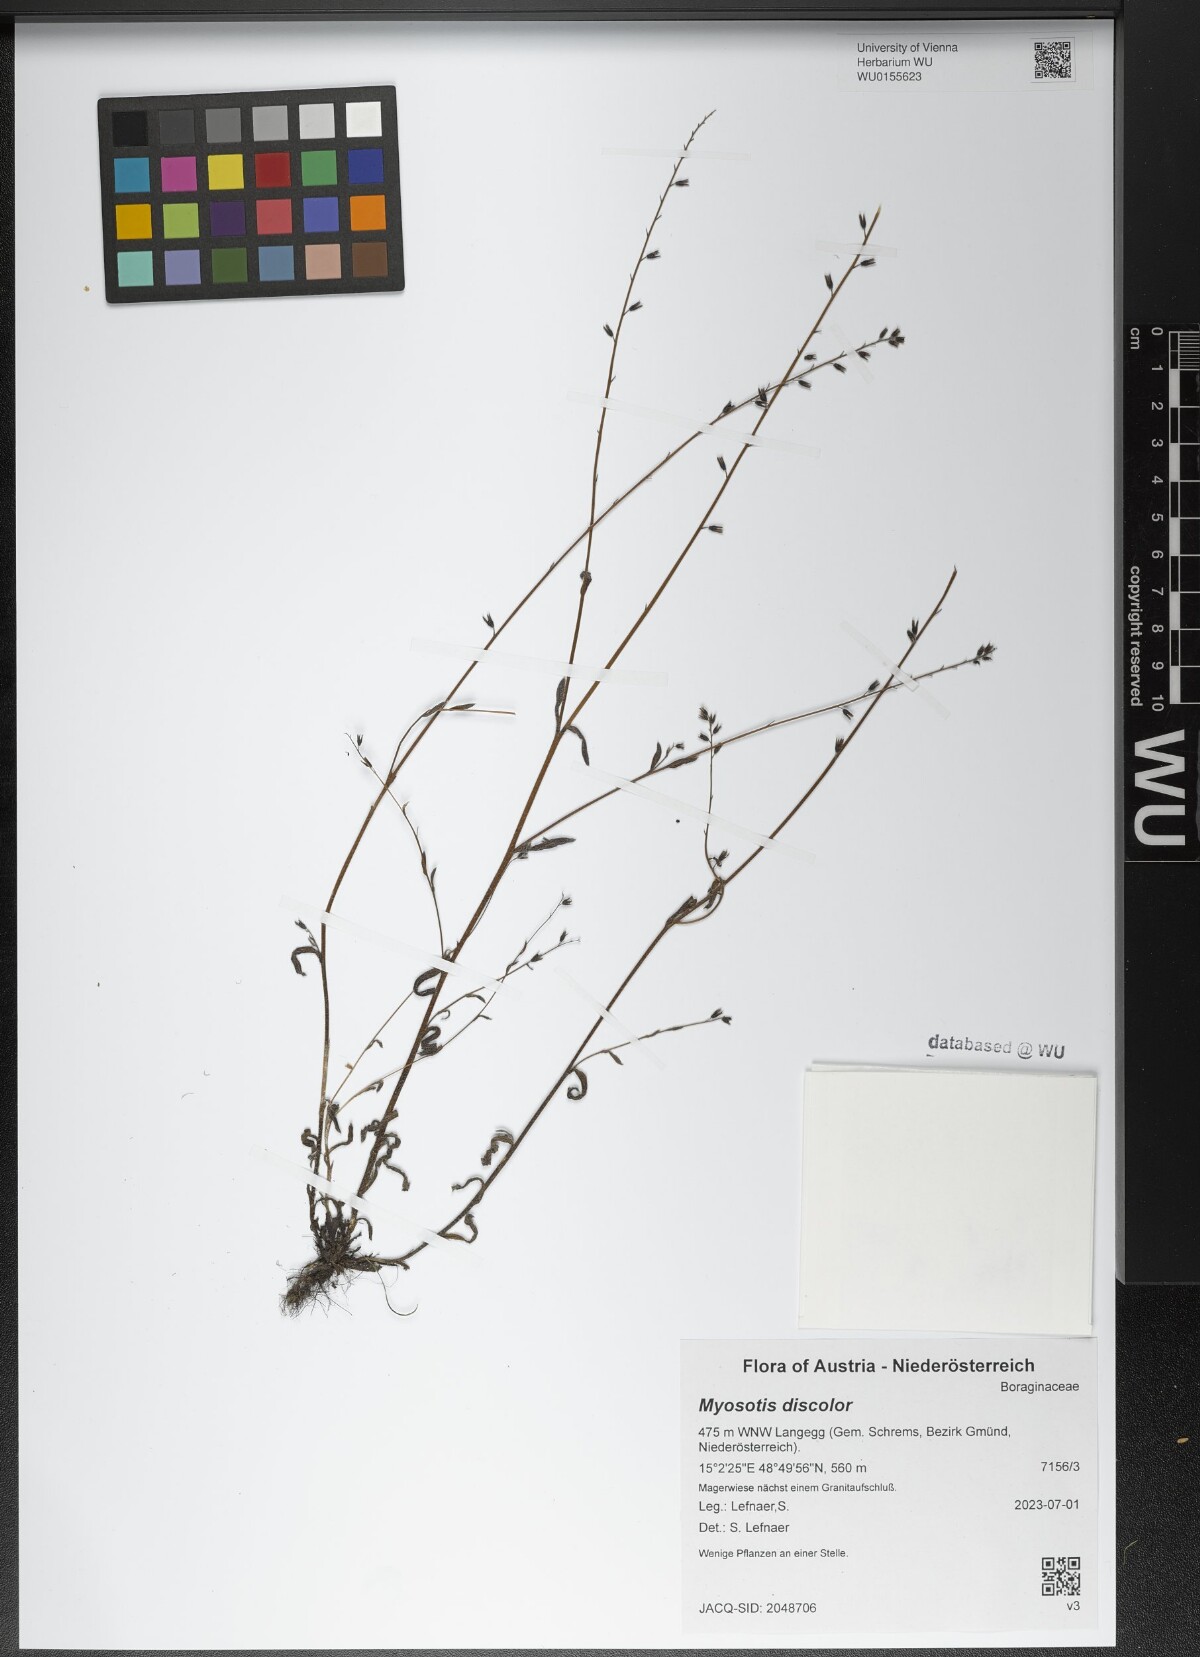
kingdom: Plantae
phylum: Tracheophyta
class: Magnoliopsida
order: Boraginales
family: Boraginaceae
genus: Myosotis
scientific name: Myosotis discolor
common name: Changing forget-me-not
